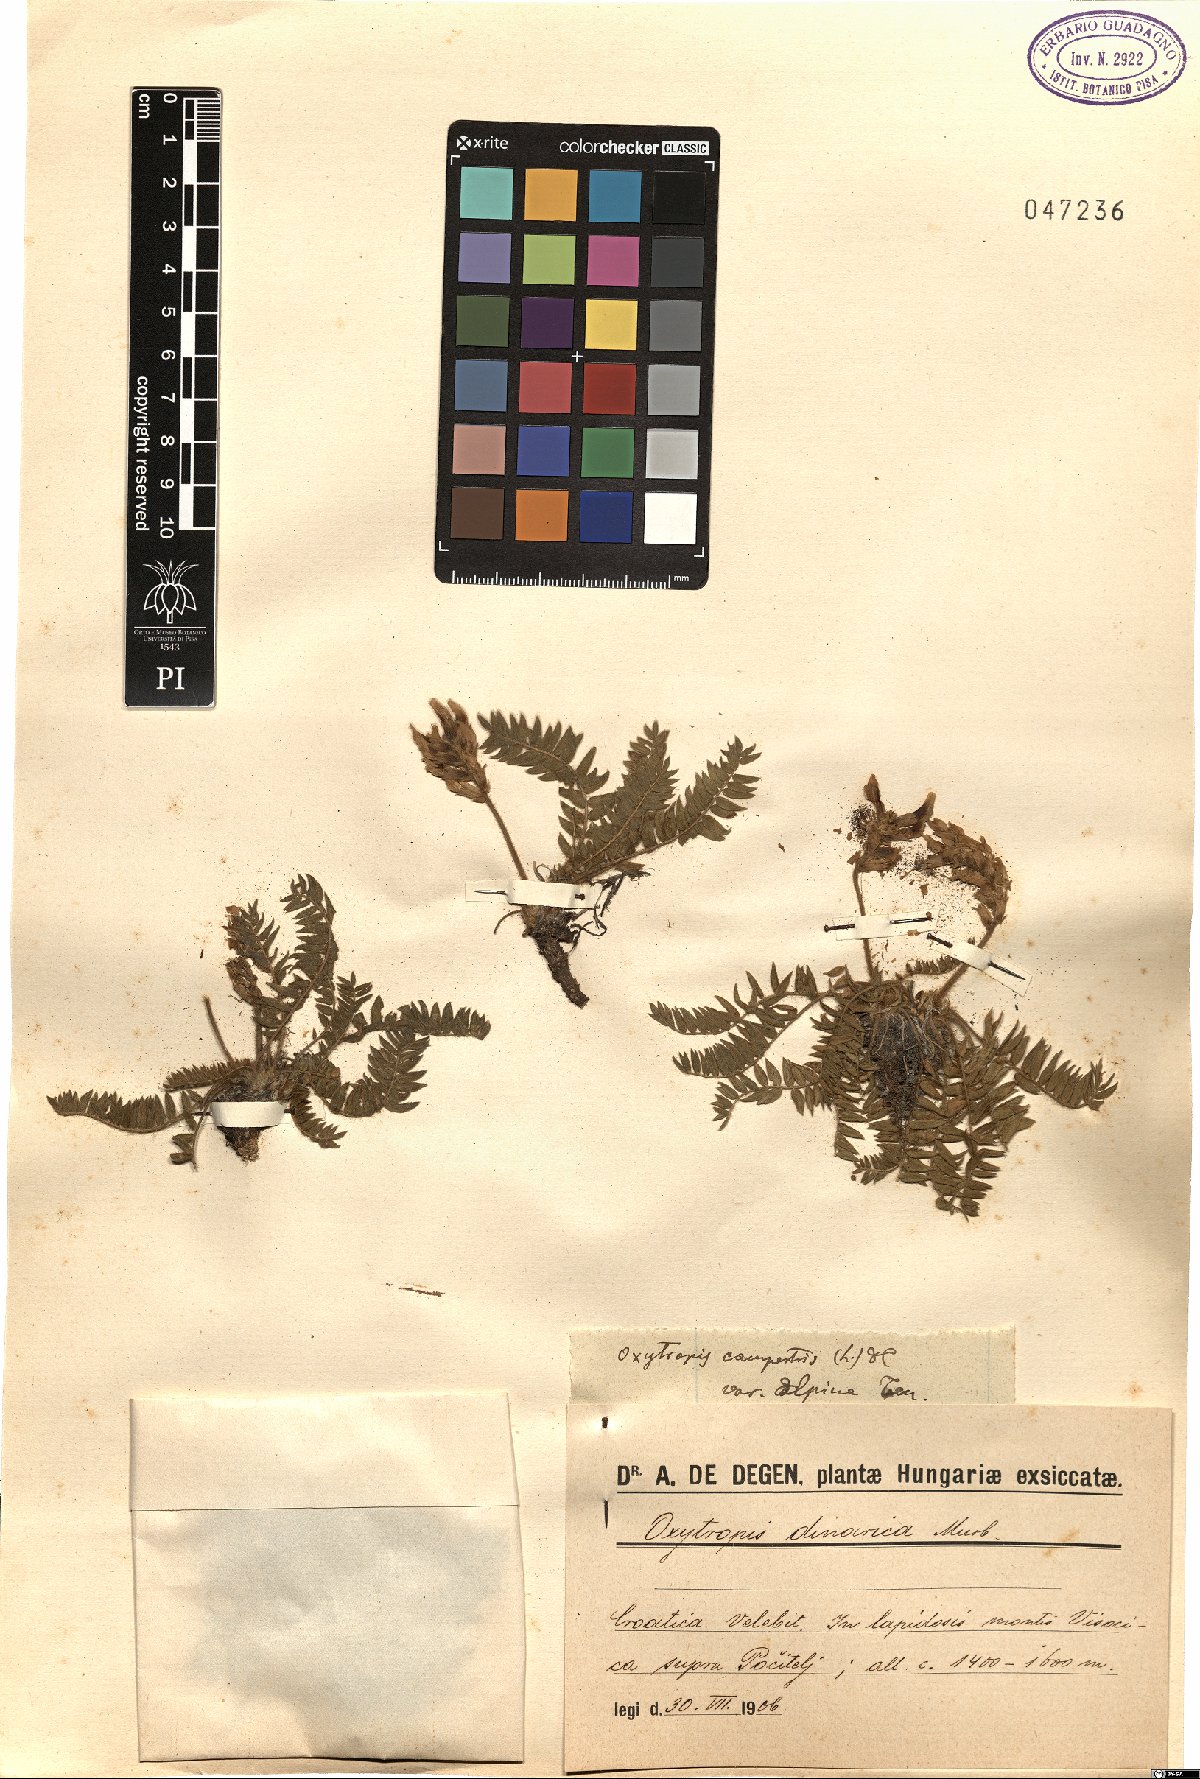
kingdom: Plantae
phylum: Tracheophyta
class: Magnoliopsida
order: Fabales
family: Fabaceae
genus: Oxytropis
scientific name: Oxytropis campestris
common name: Field locoweed
